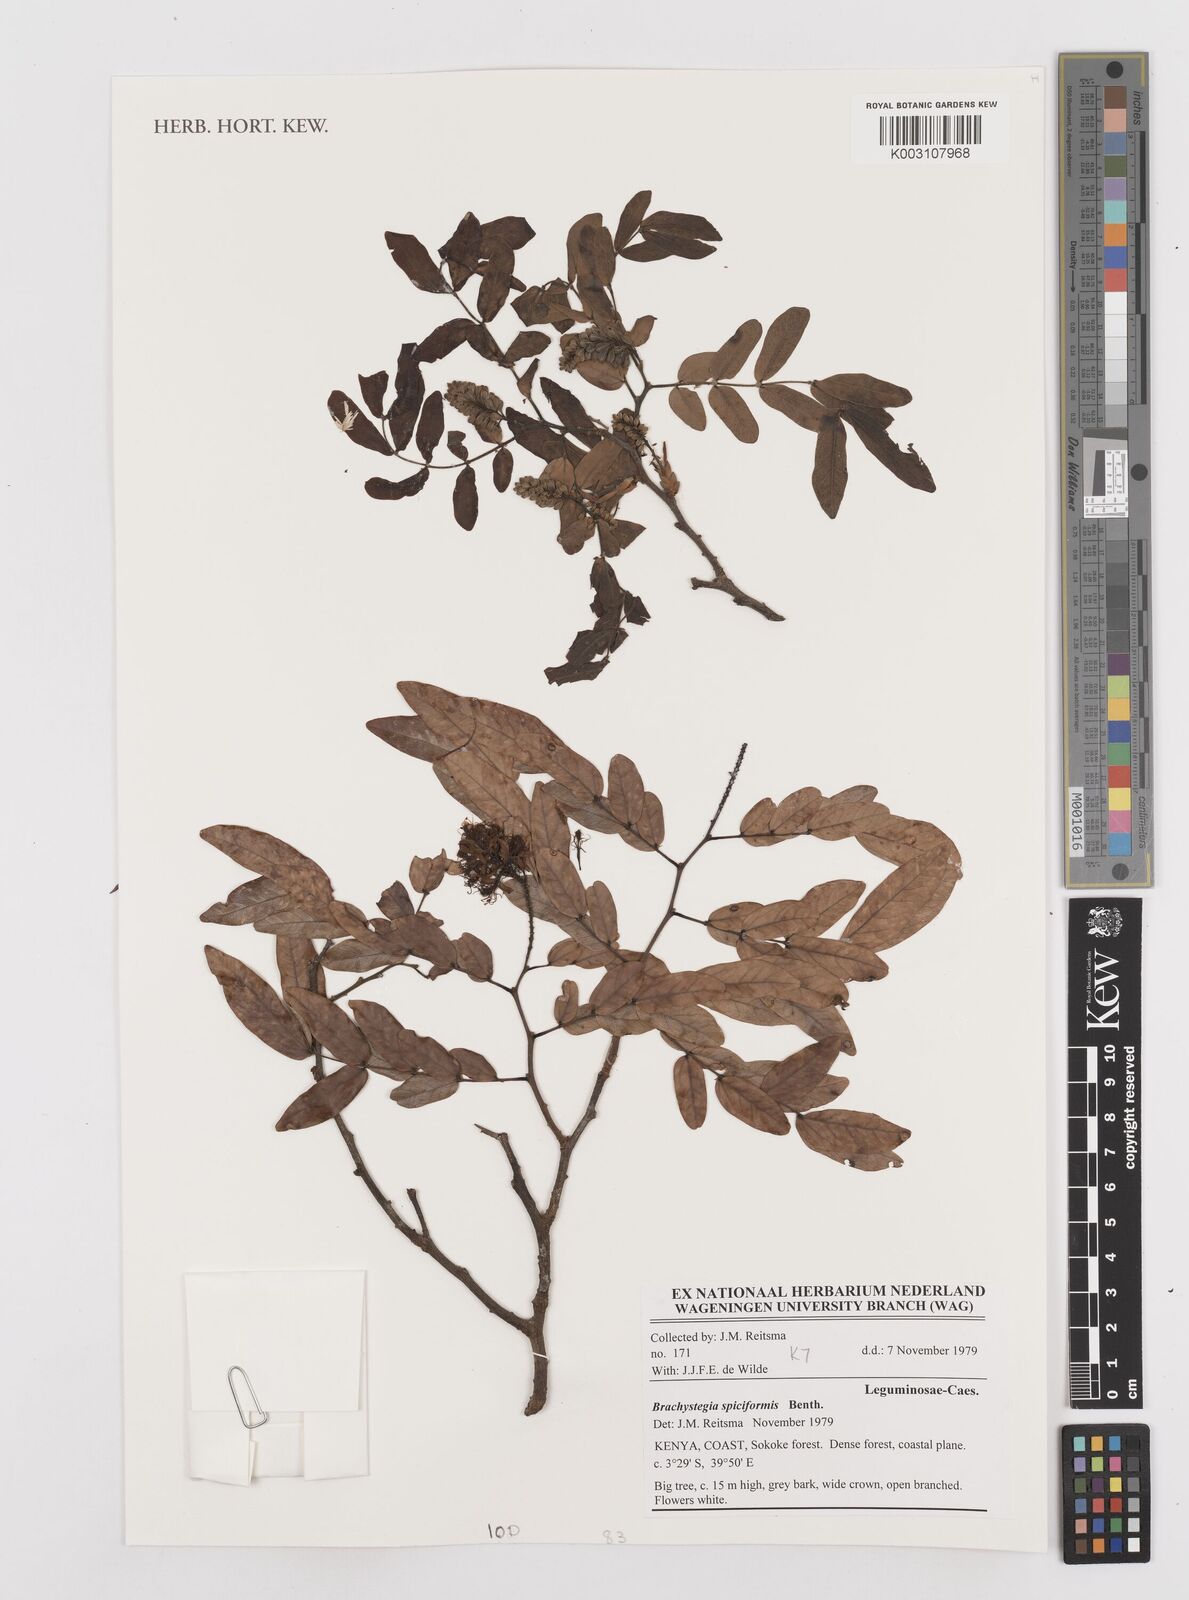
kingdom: Plantae
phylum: Tracheophyta
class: Magnoliopsida
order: Fabales
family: Fabaceae
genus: Brachystegia
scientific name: Brachystegia spiciformis
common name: Zebrawood
